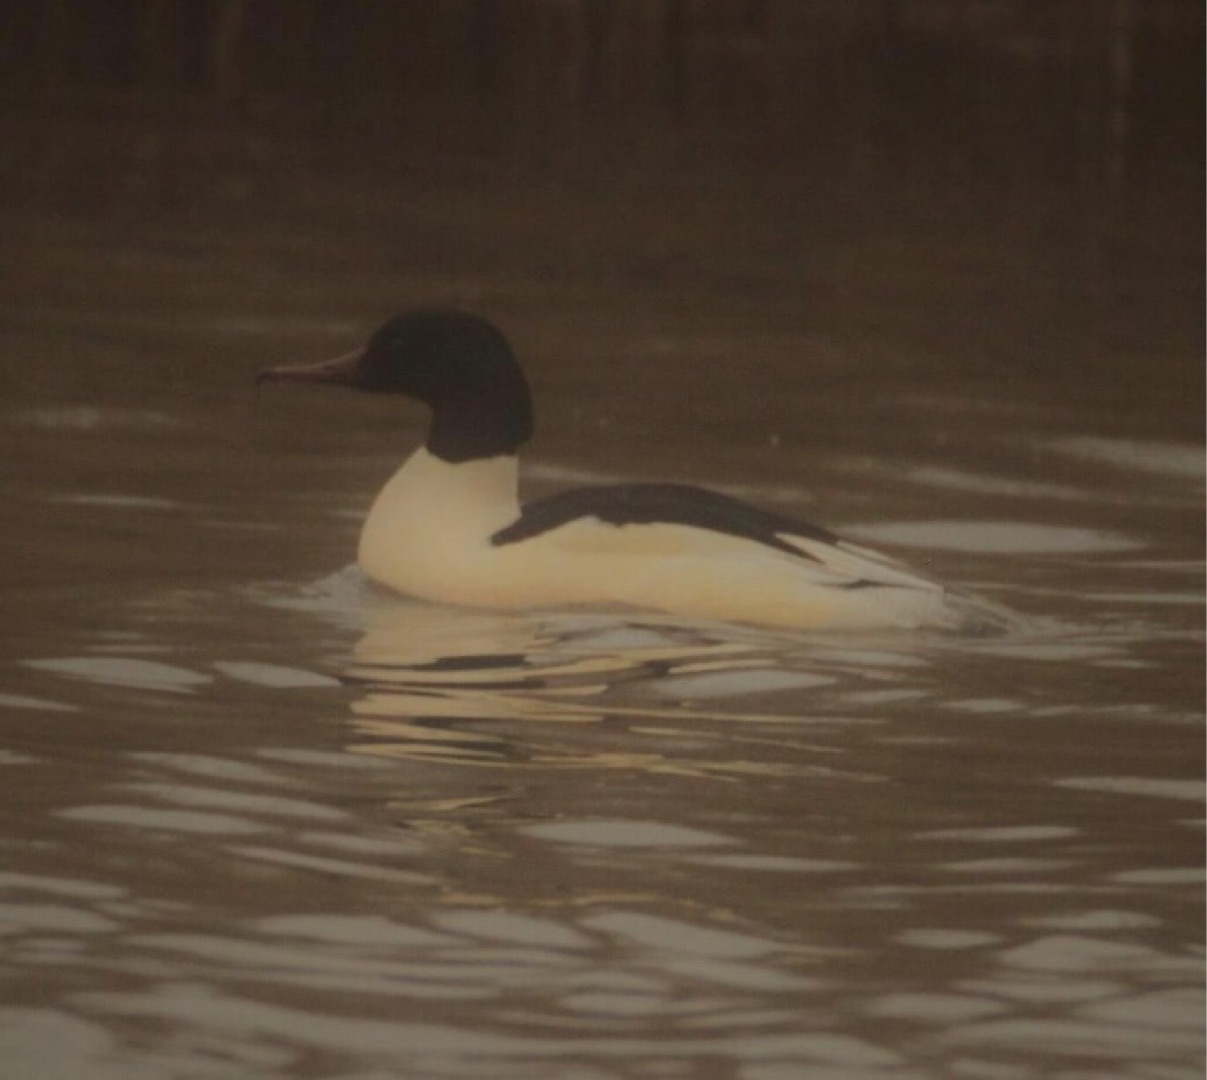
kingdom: Animalia
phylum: Chordata
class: Aves
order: Anseriformes
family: Anatidae
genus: Mergus
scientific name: Mergus merganser
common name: Stor skallesluger
